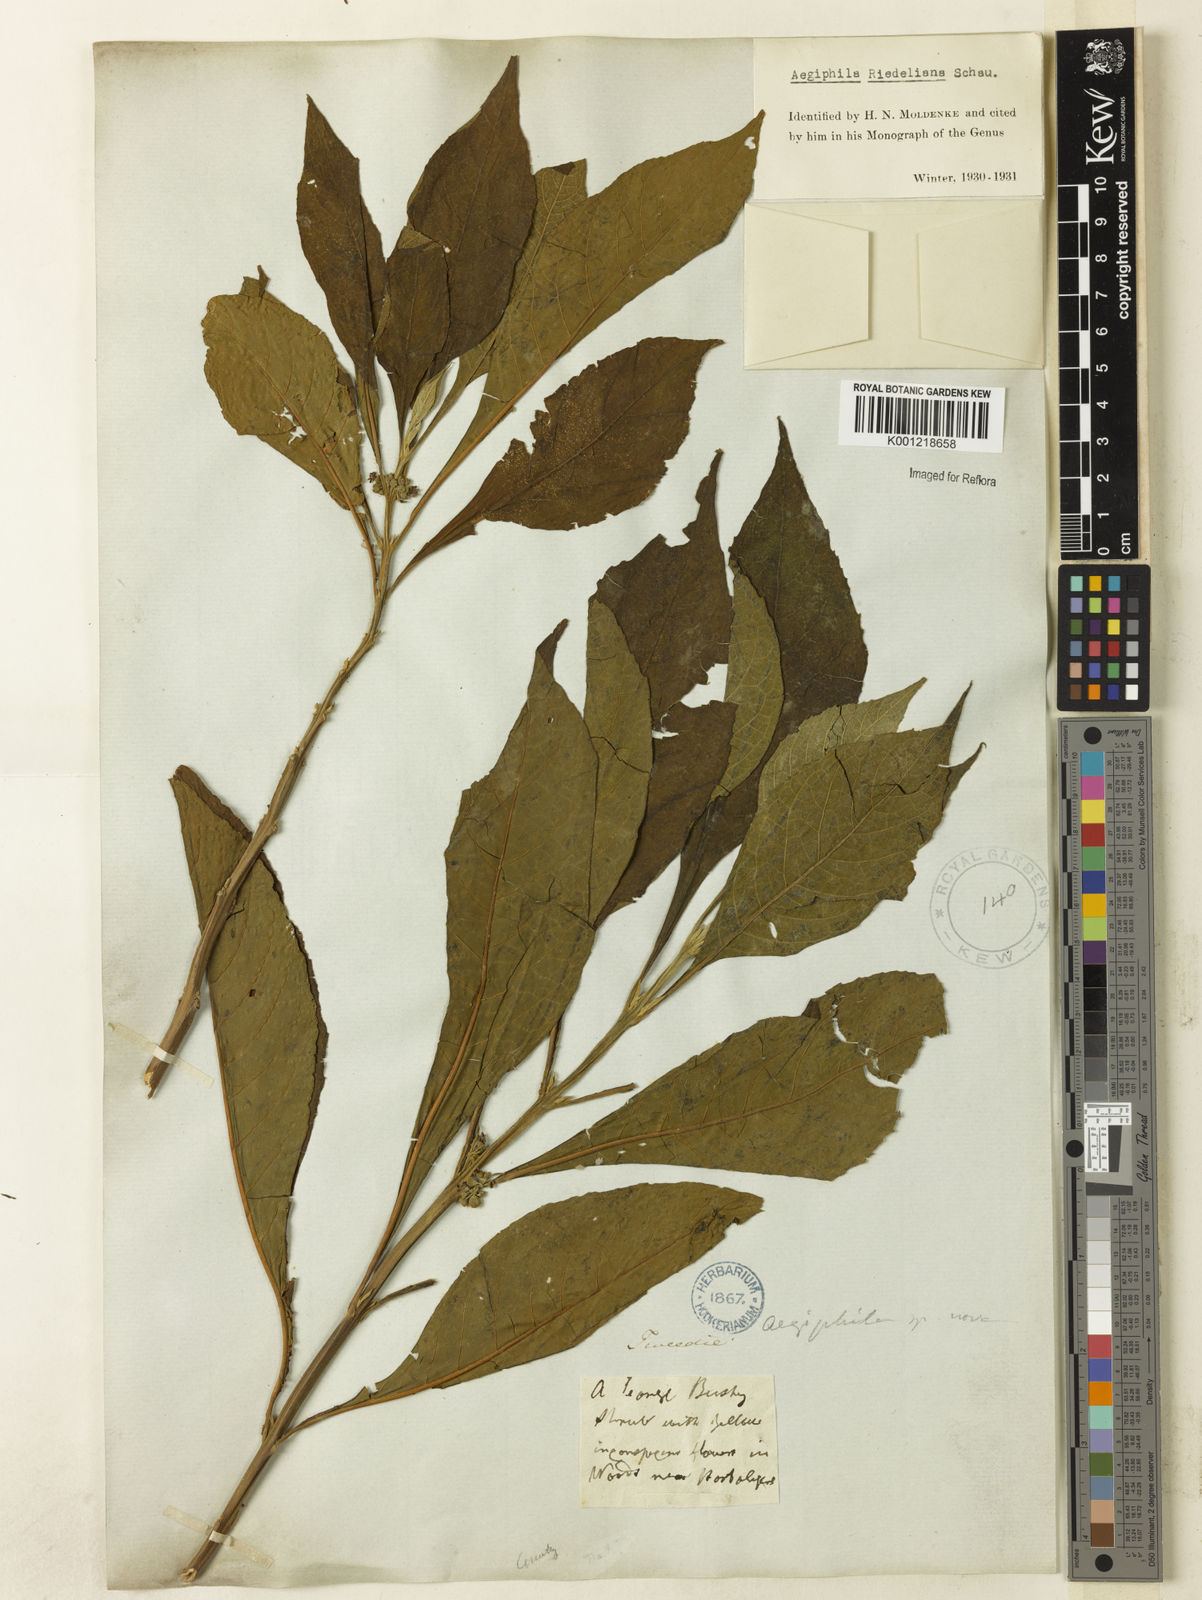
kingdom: Plantae
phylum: Tracheophyta
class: Magnoliopsida
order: Lamiales
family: Lamiaceae
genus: Aegiphila
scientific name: Aegiphila riedeliana
